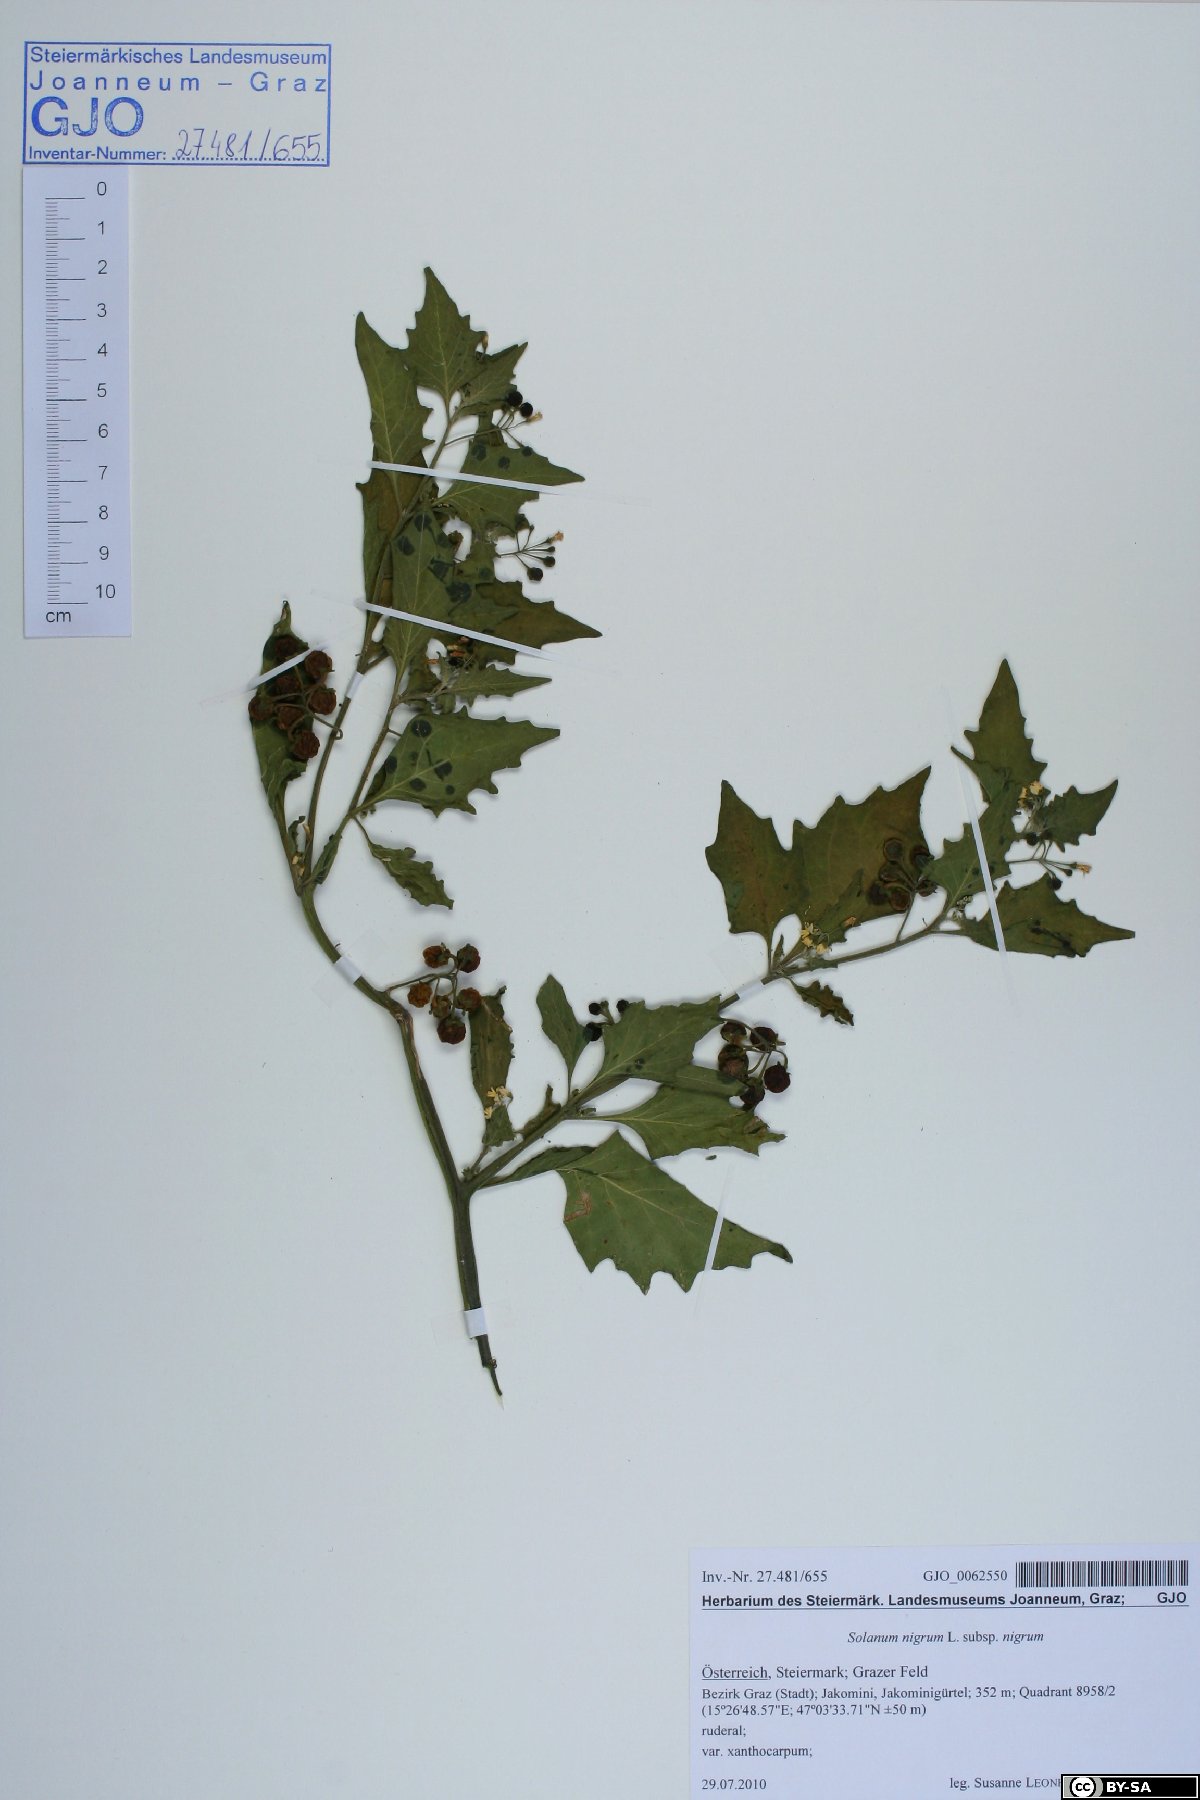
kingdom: Plantae
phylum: Tracheophyta
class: Magnoliopsida
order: Solanales
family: Solanaceae
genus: Solanum
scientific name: Solanum nigrum
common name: Black nightshade
